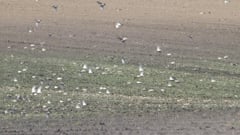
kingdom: Animalia
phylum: Chordata
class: Aves
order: Passeriformes
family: Fringillidae
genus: Fringilla
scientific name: Fringilla montifringilla
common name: Brambling
